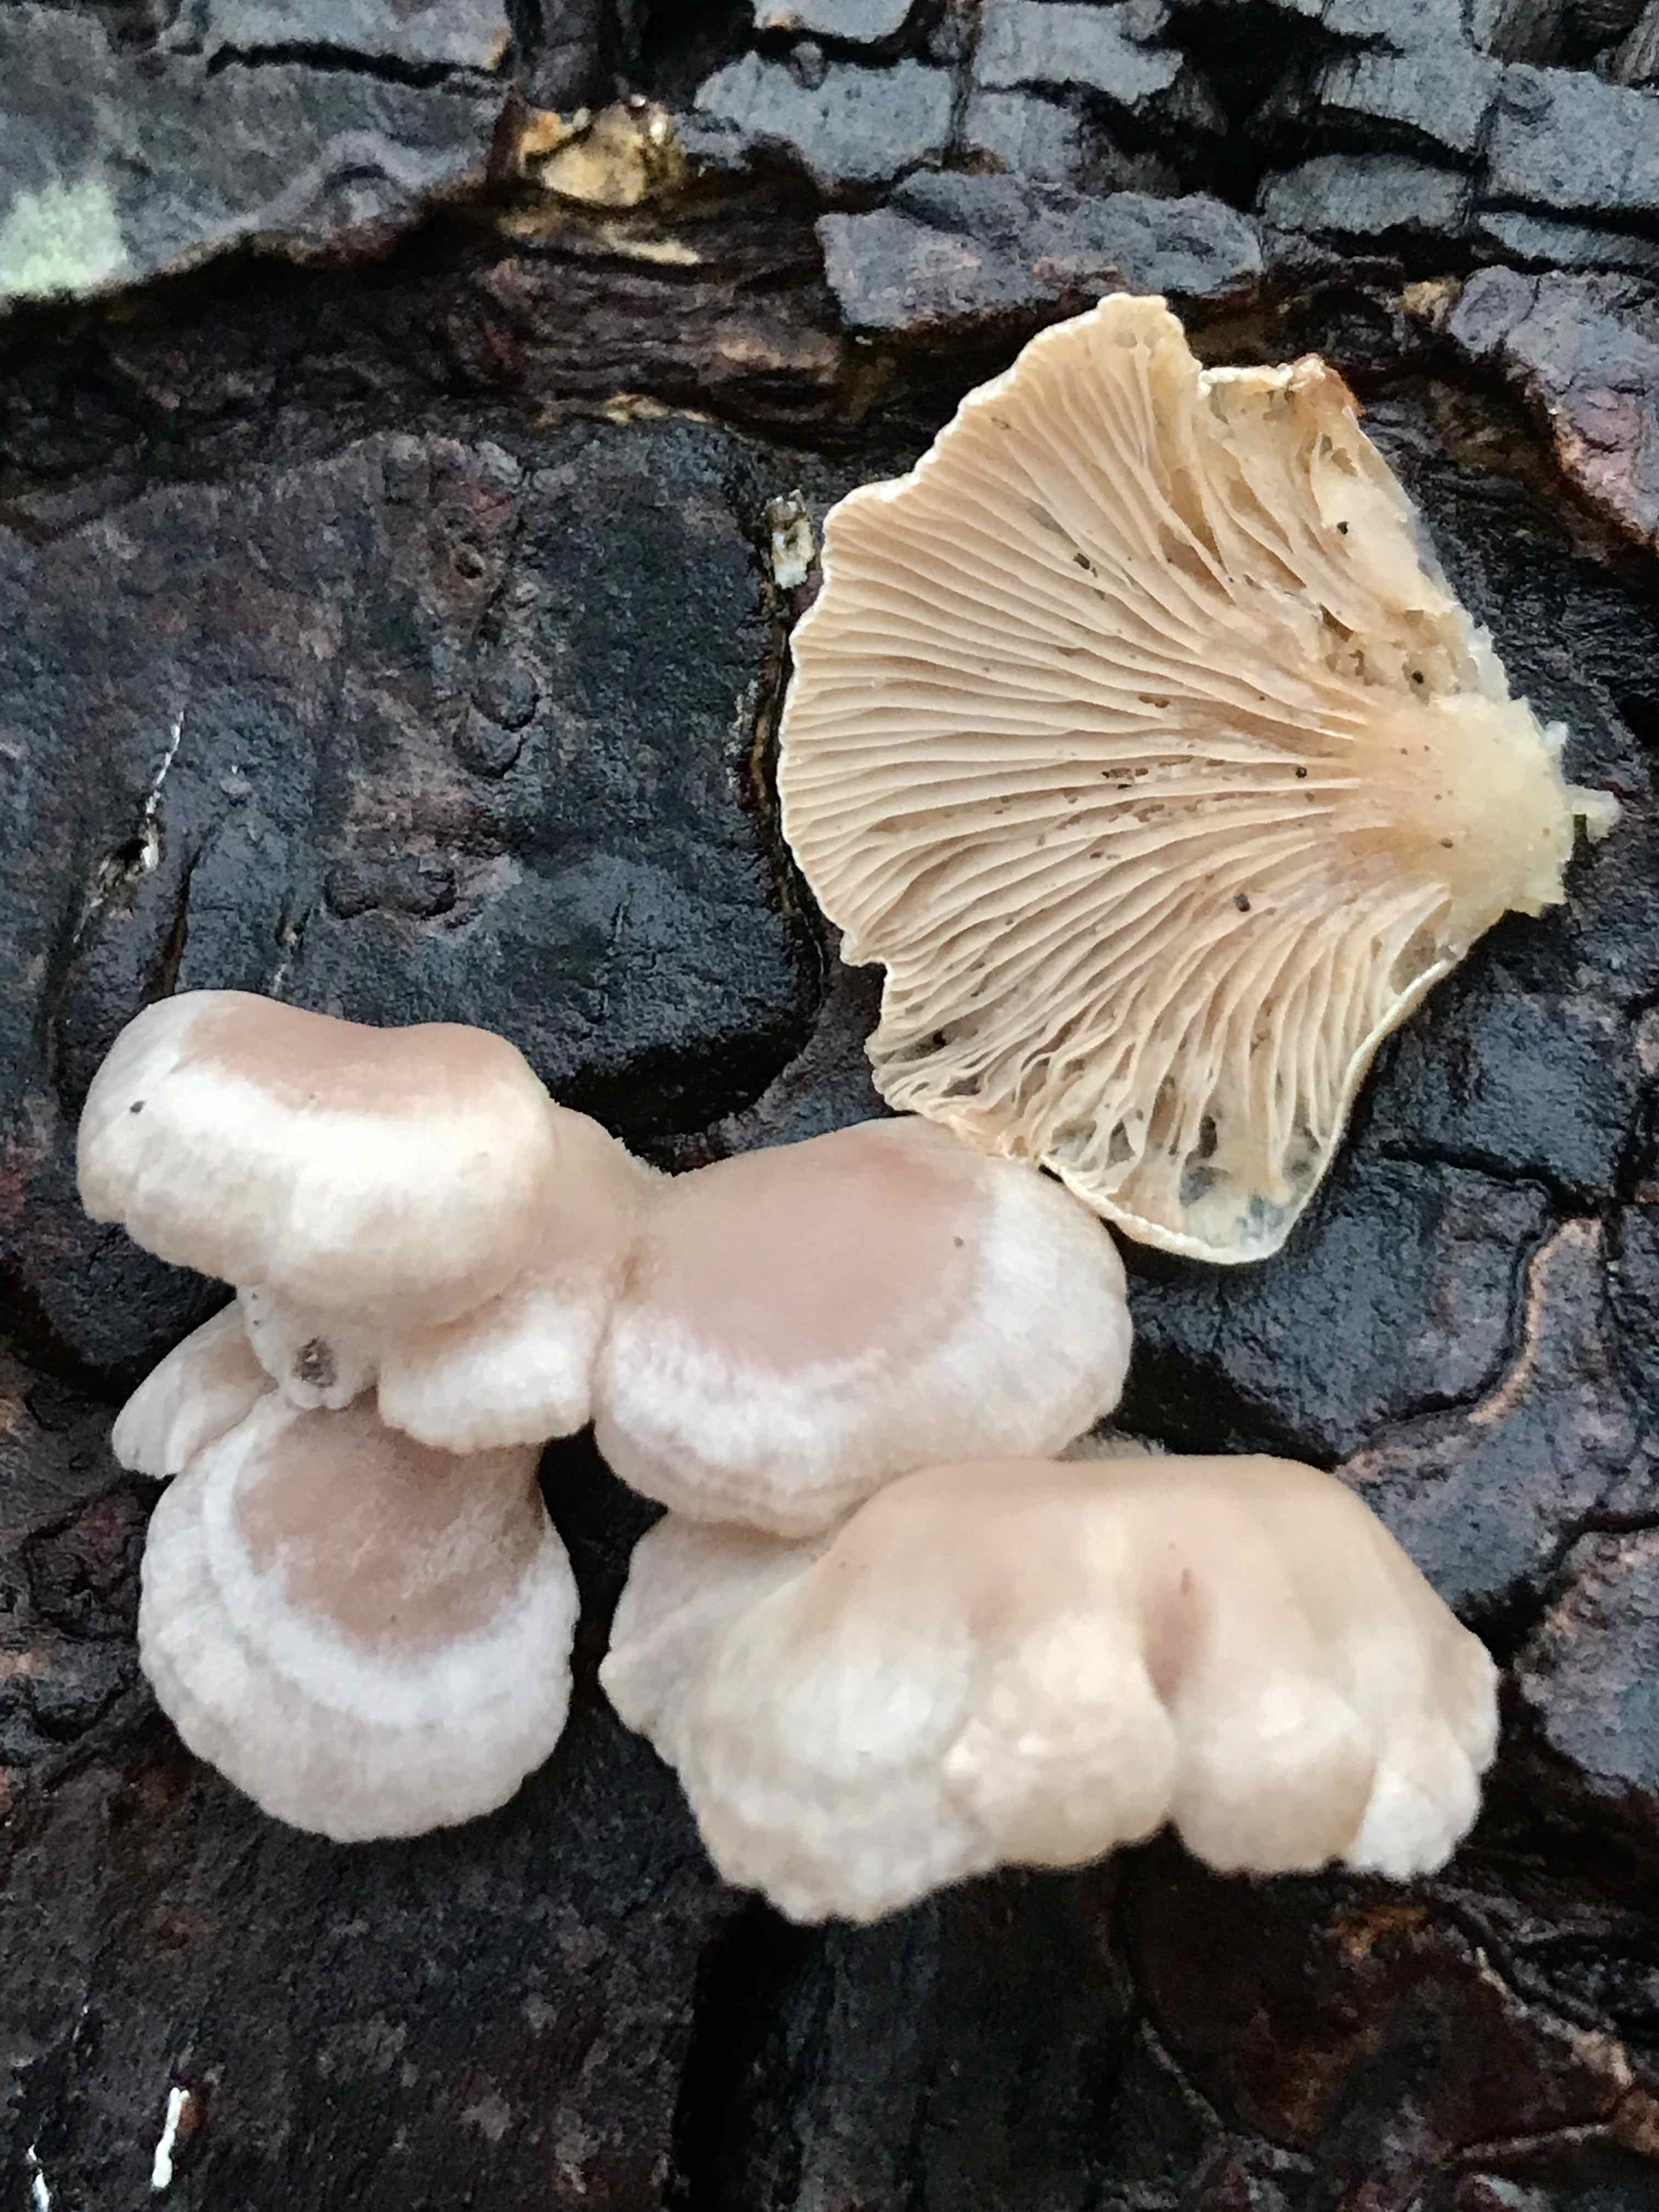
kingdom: Fungi
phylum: Basidiomycota
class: Agaricomycetes
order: Agaricales
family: Crepidotaceae
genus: Crepidotus
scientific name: Crepidotus mollis
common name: blød muslingesvamp
